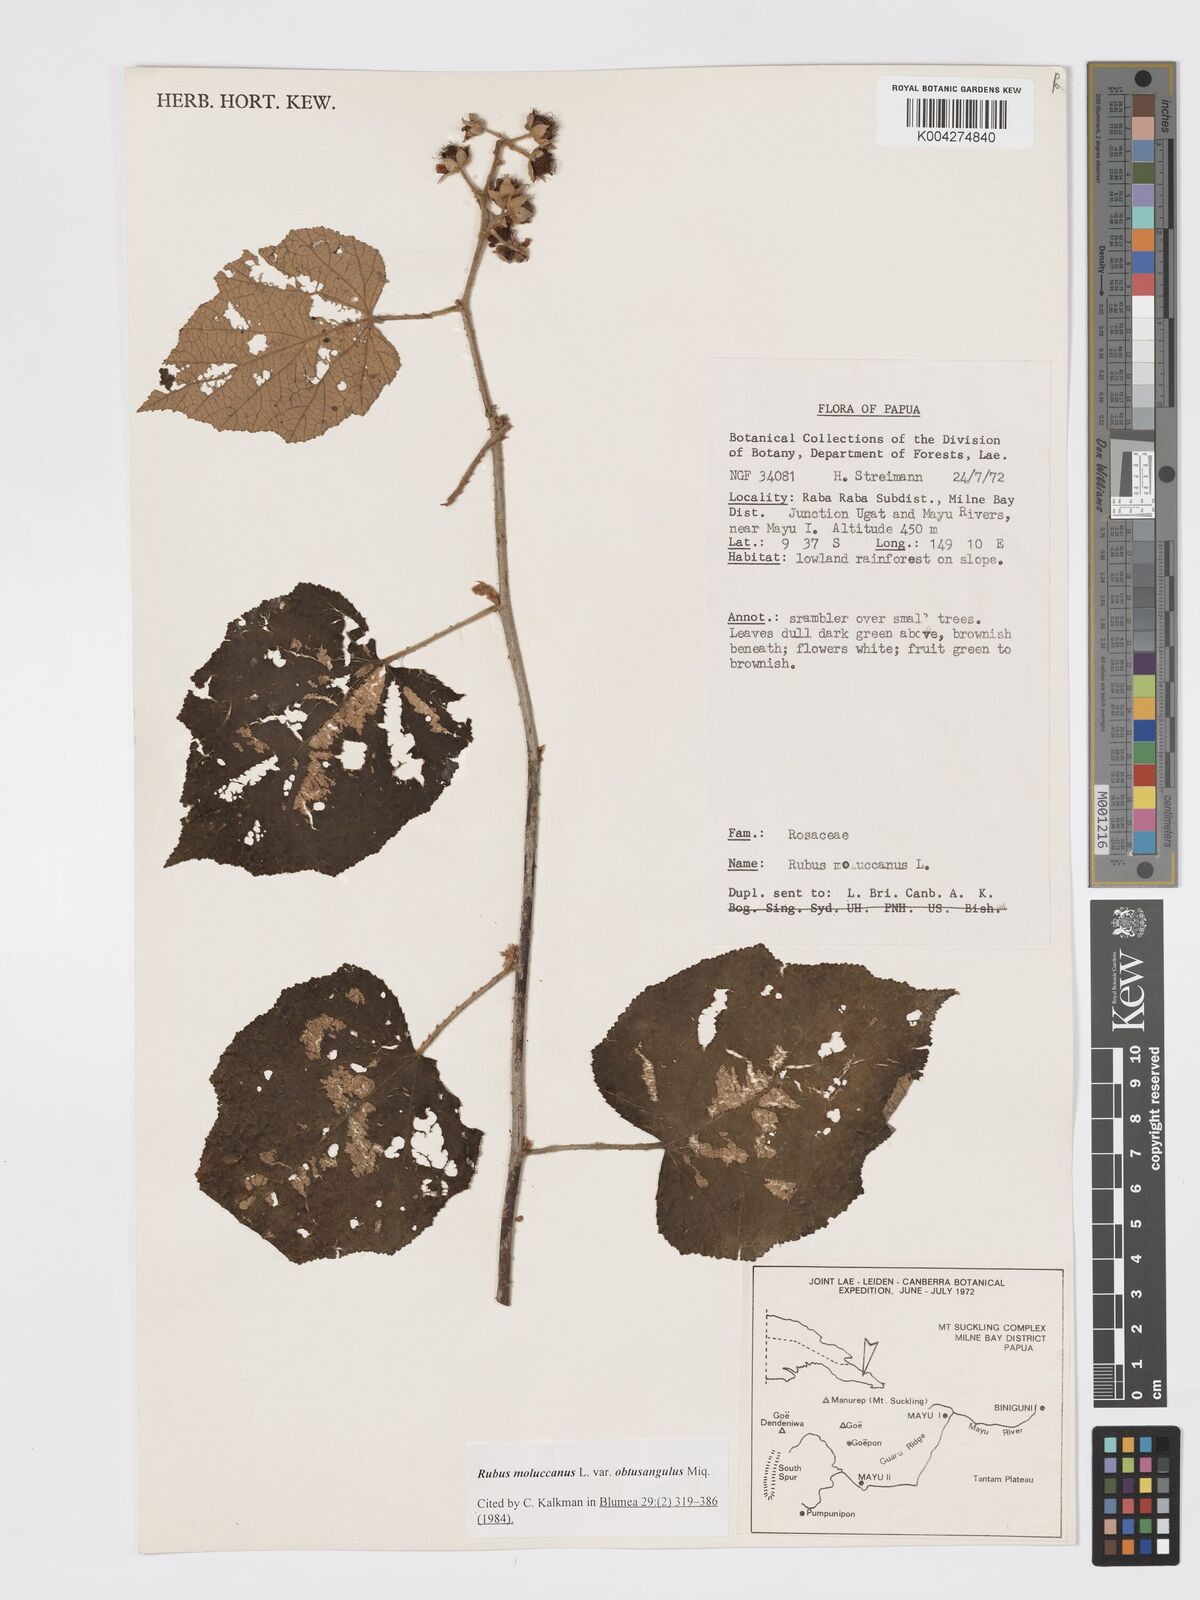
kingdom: Plantae
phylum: Tracheophyta
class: Magnoliopsida
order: Rosales
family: Rosaceae
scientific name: Rosaceae
